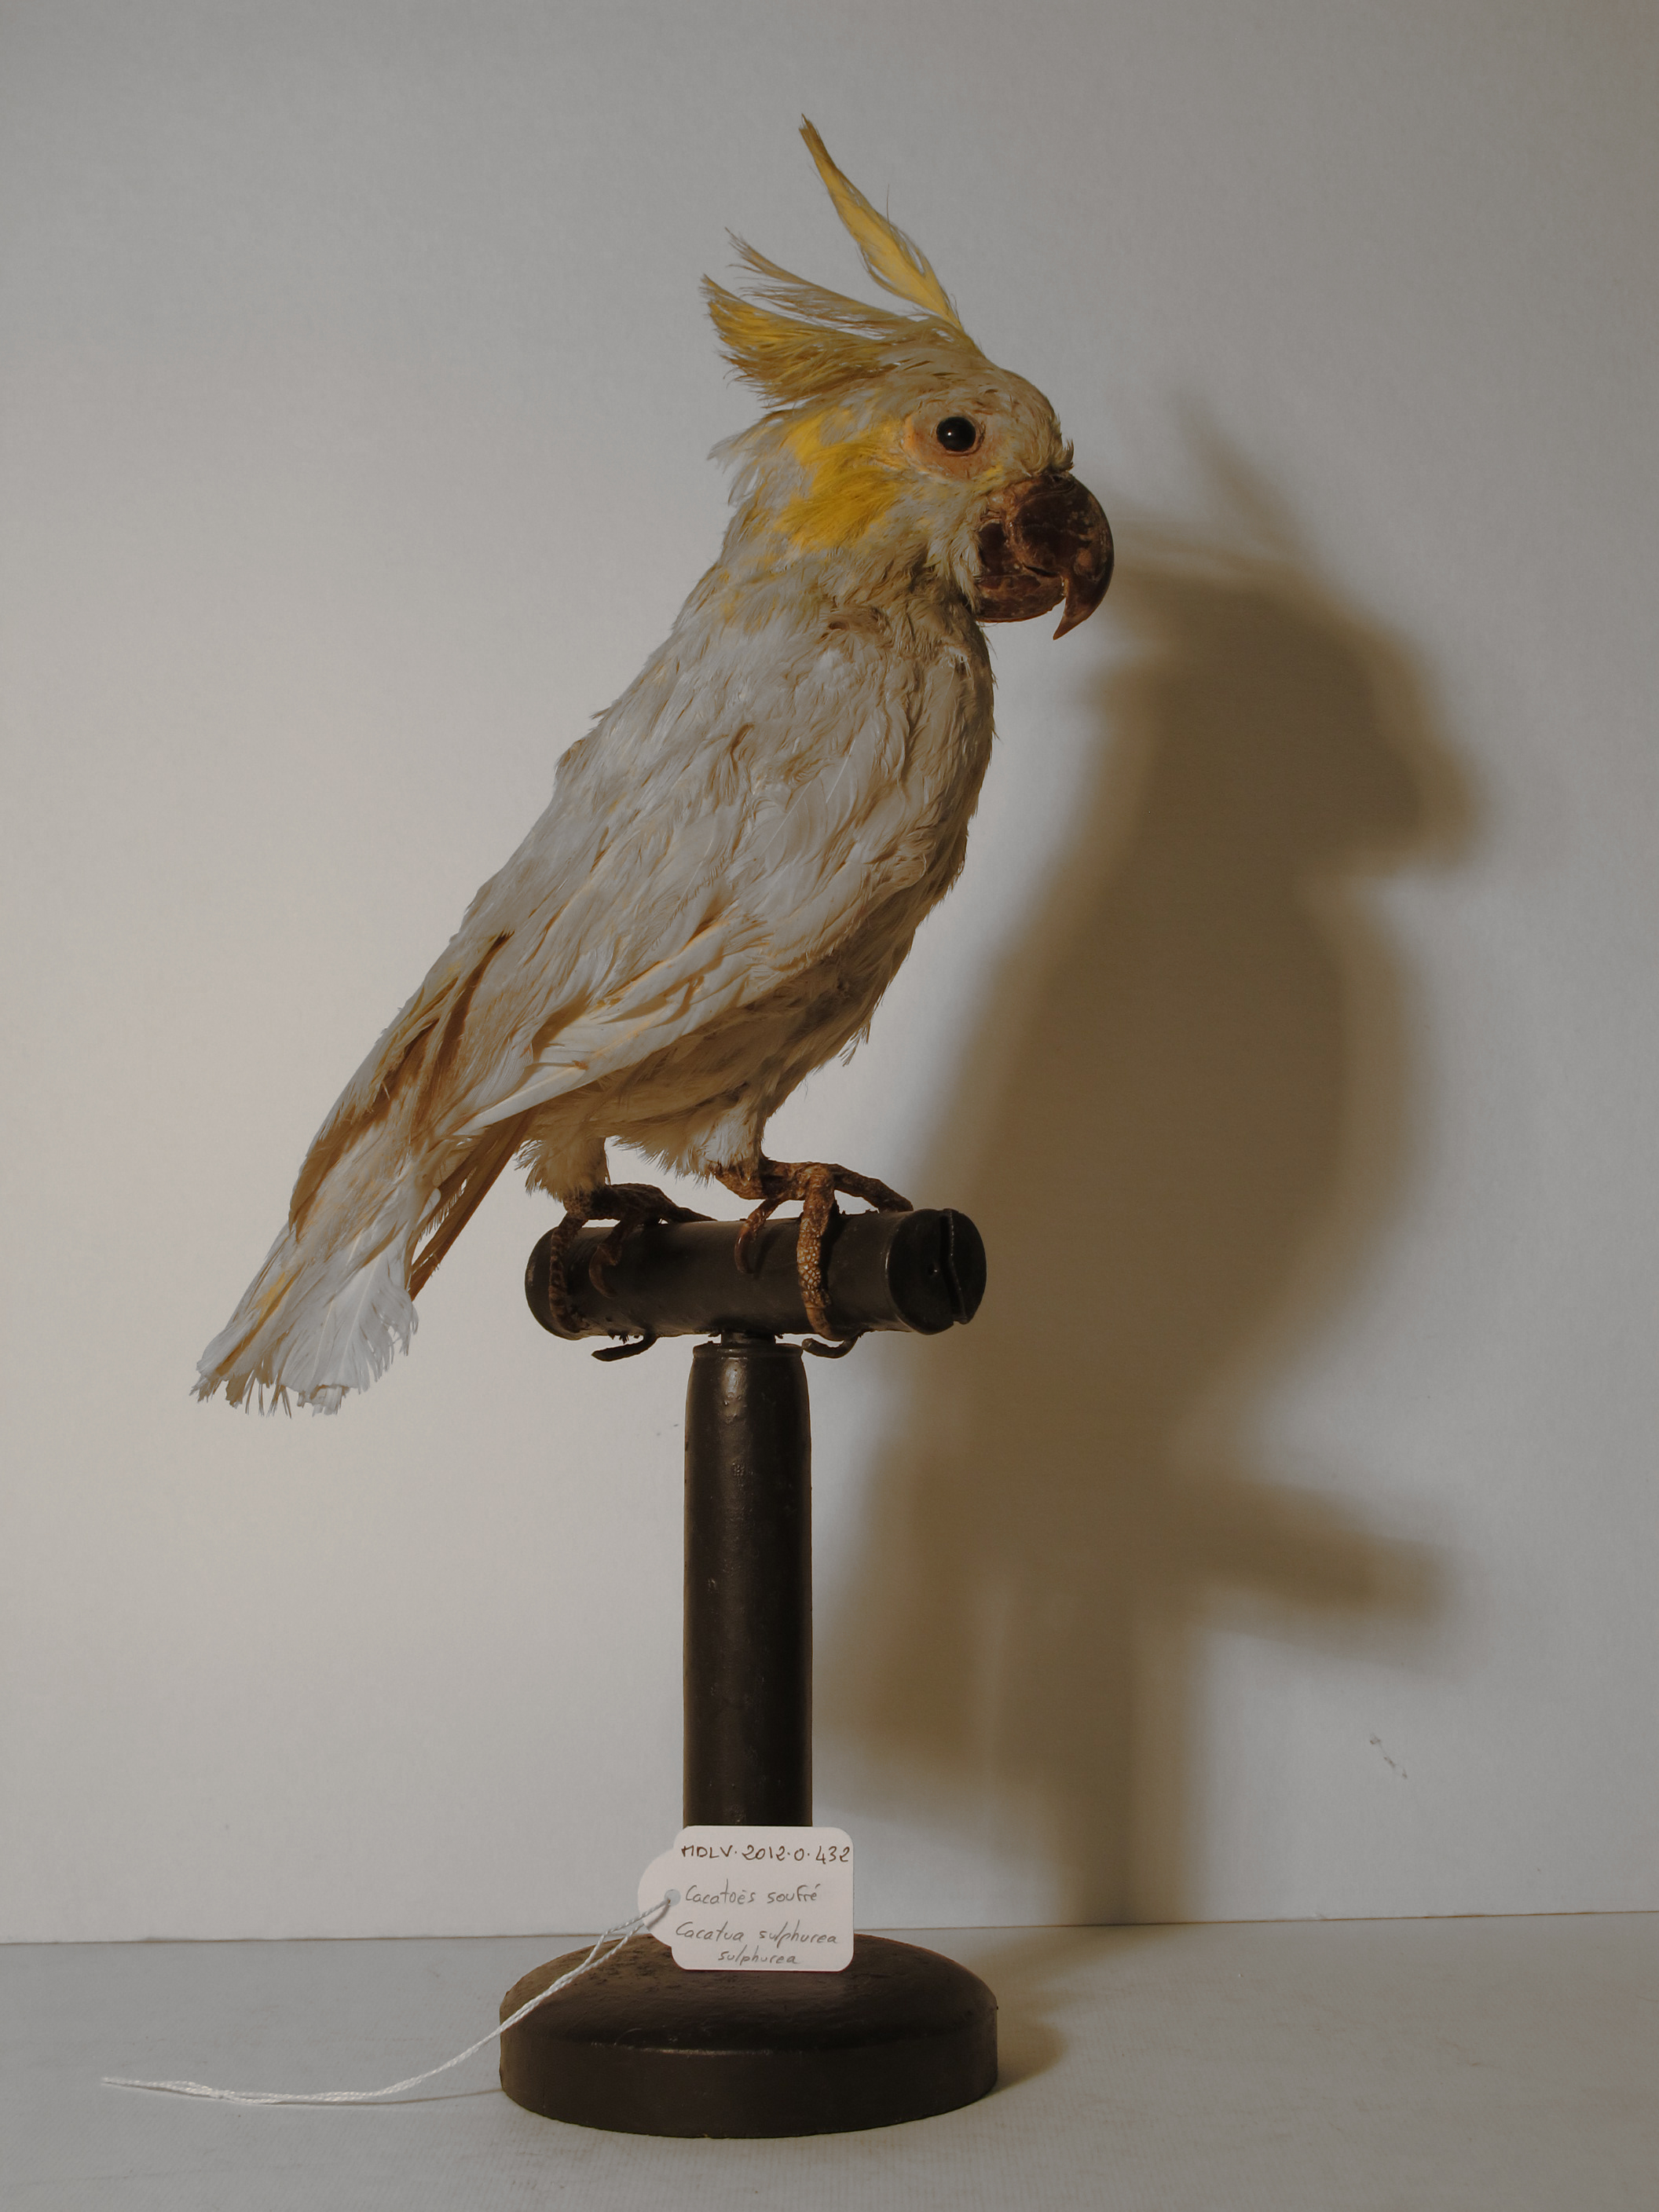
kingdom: Animalia
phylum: Chordata
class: Aves
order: Psittaciformes
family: Psittacidae
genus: Cacatua
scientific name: Cacatua sulphurea
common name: Yellow-crested Cockatoo
